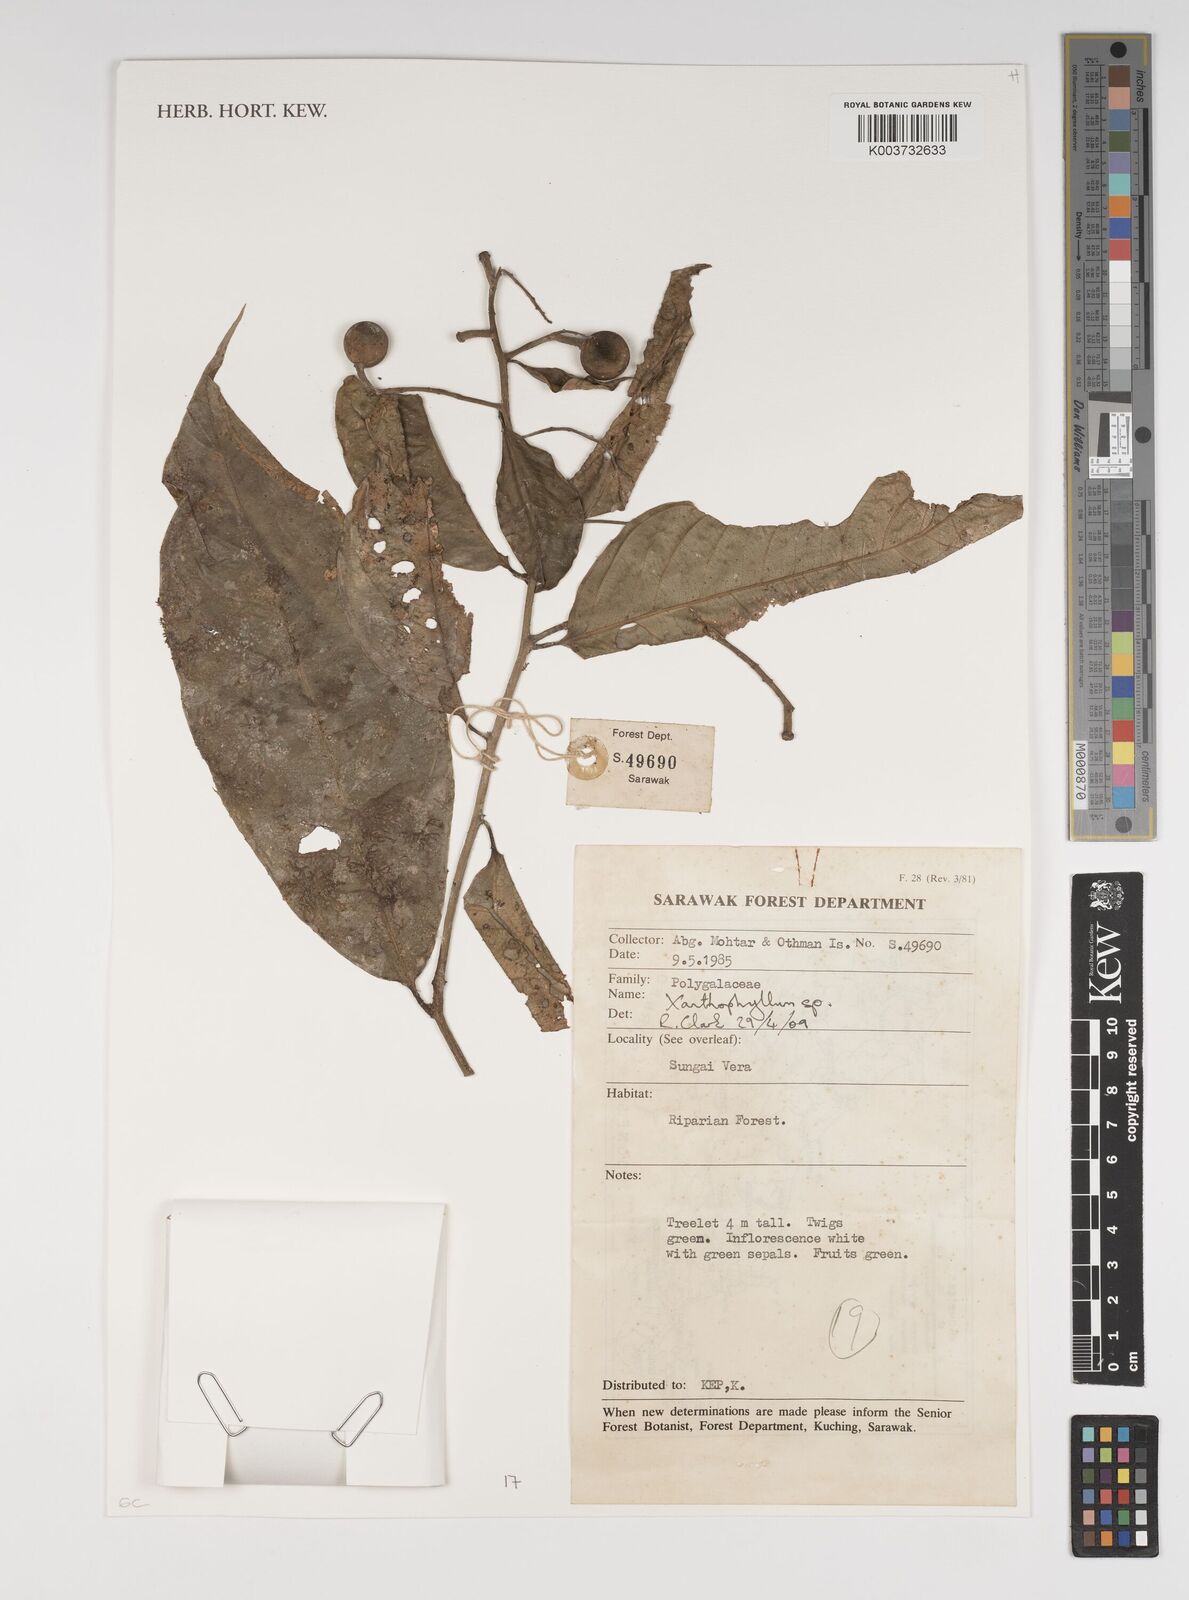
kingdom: Plantae
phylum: Tracheophyta
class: Magnoliopsida
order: Fabales
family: Polygalaceae
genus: Xanthophyllum
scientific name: Xanthophyllum
